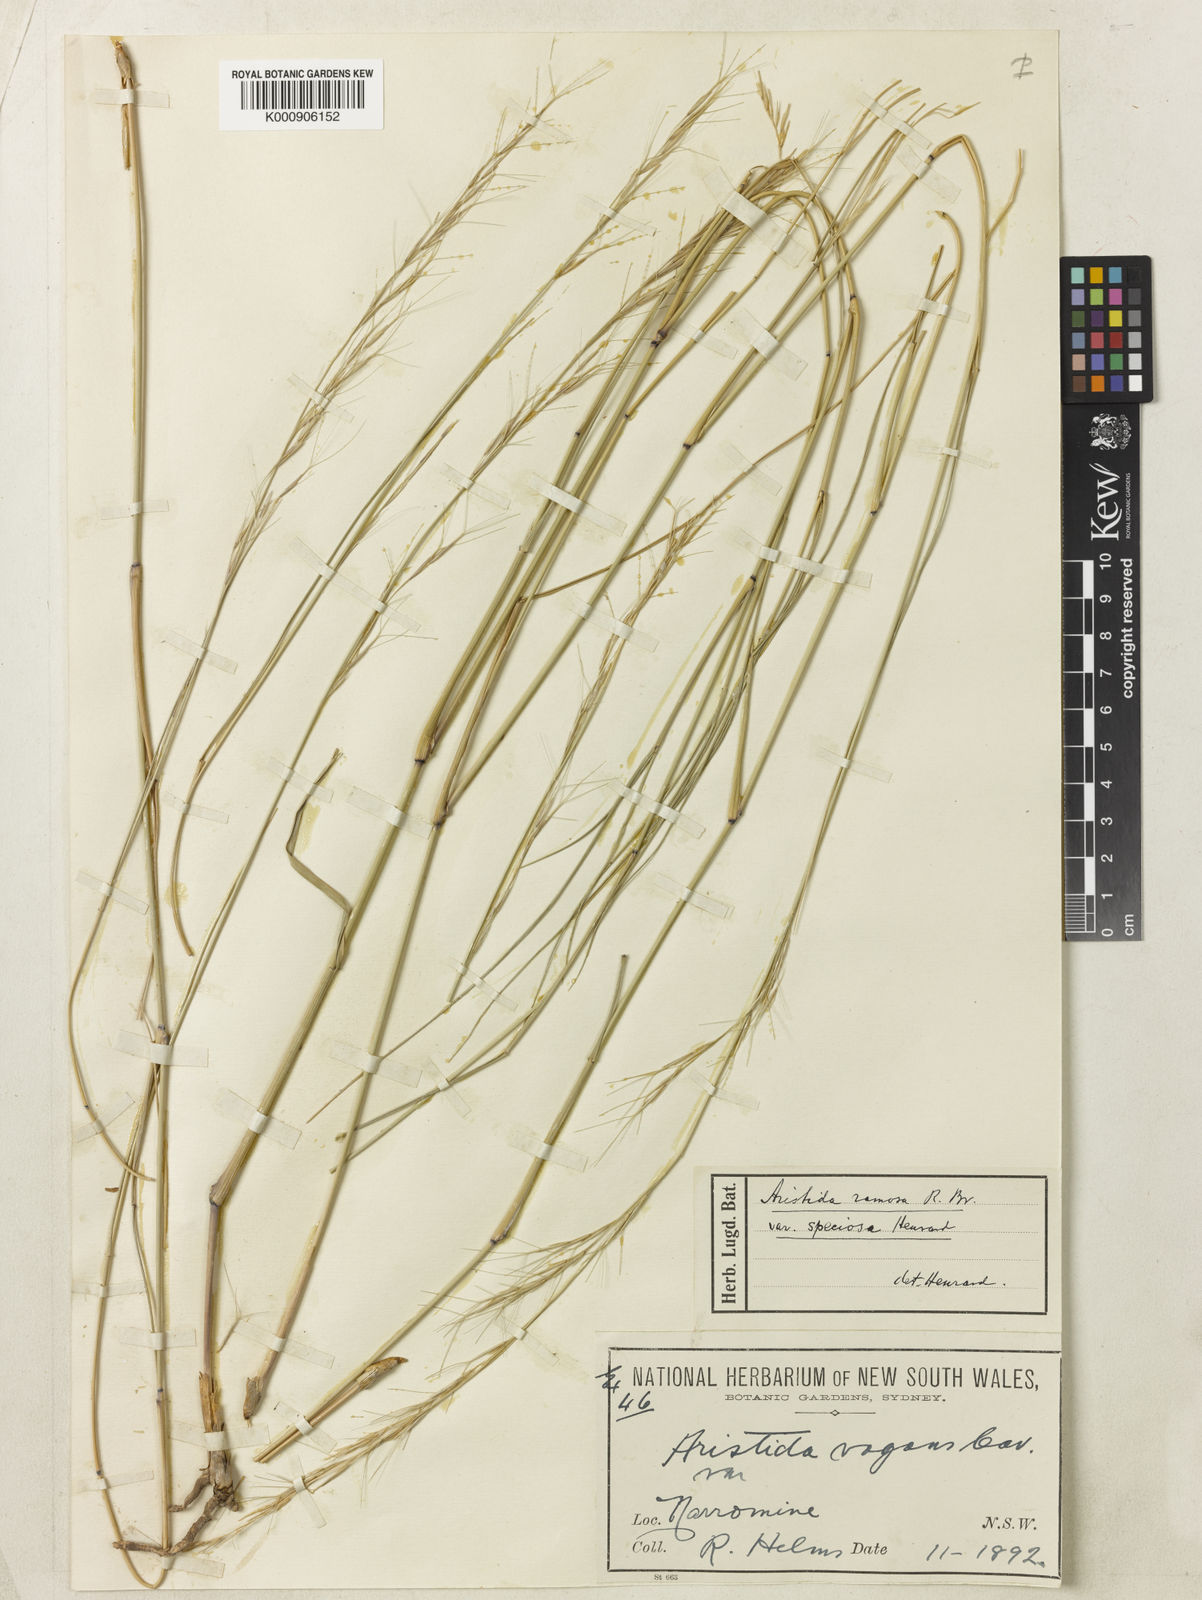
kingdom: Plantae
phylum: Tracheophyta
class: Liliopsida
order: Poales
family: Poaceae
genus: Aristida
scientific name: Aristida ramosa
